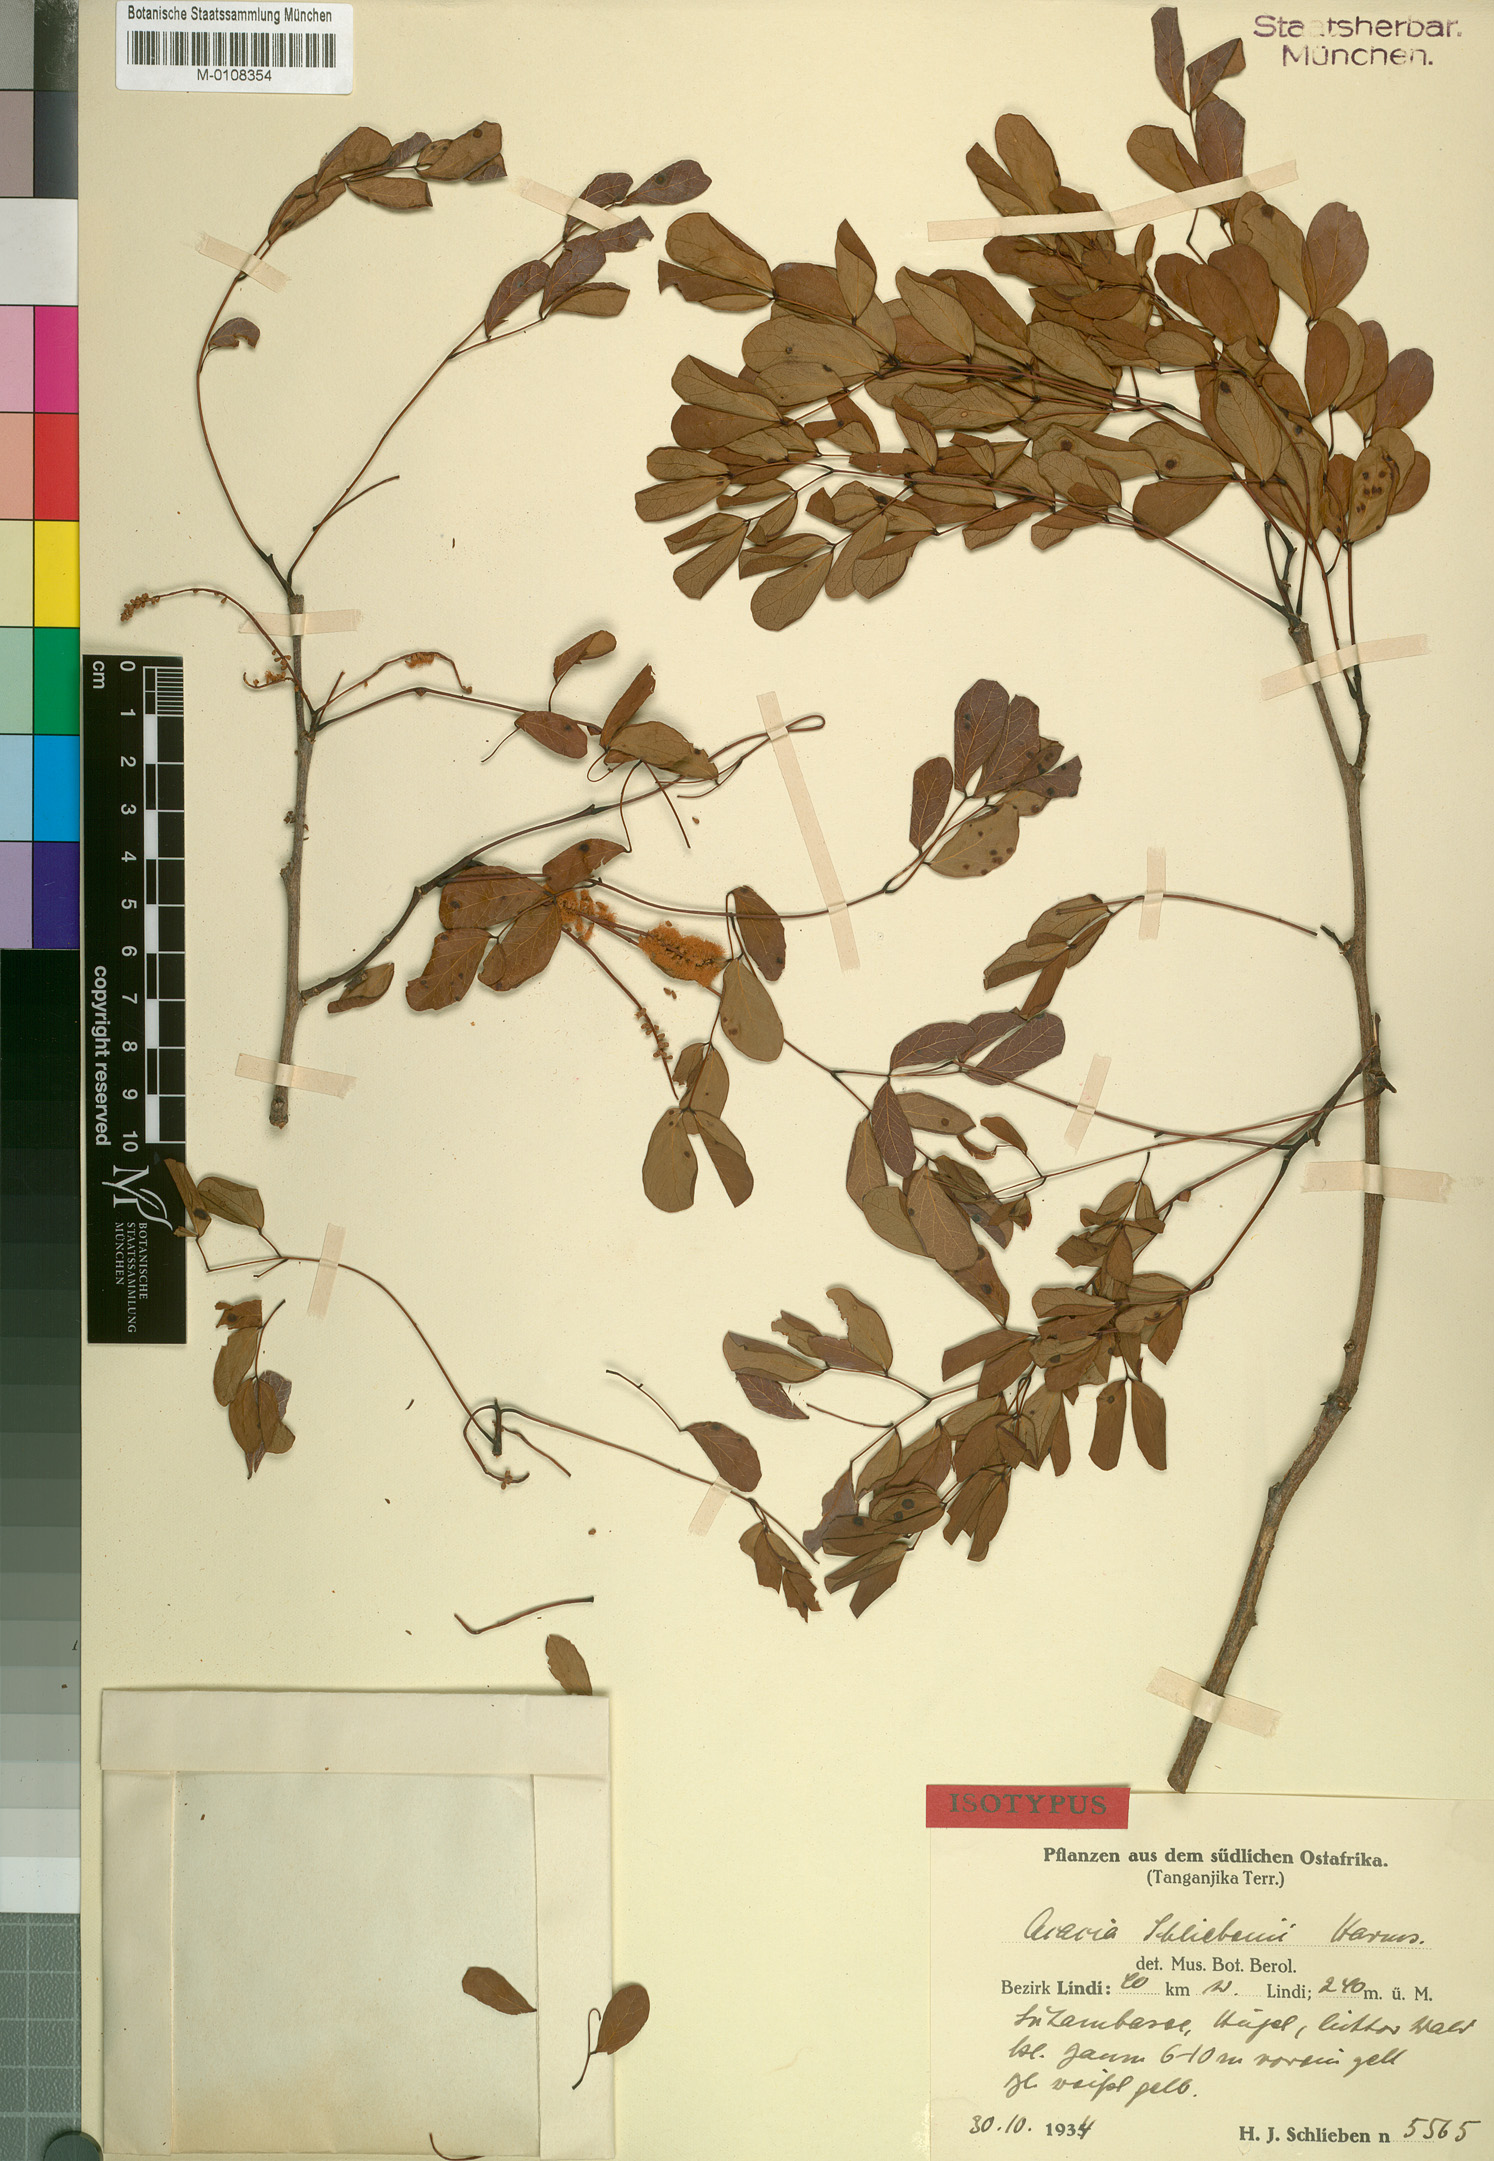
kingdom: Plantae
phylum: Tracheophyta
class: Magnoliopsida
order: Fabales
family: Fabaceae
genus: Senegalia
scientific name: Senegalia nigrescens
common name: Knobthorn
